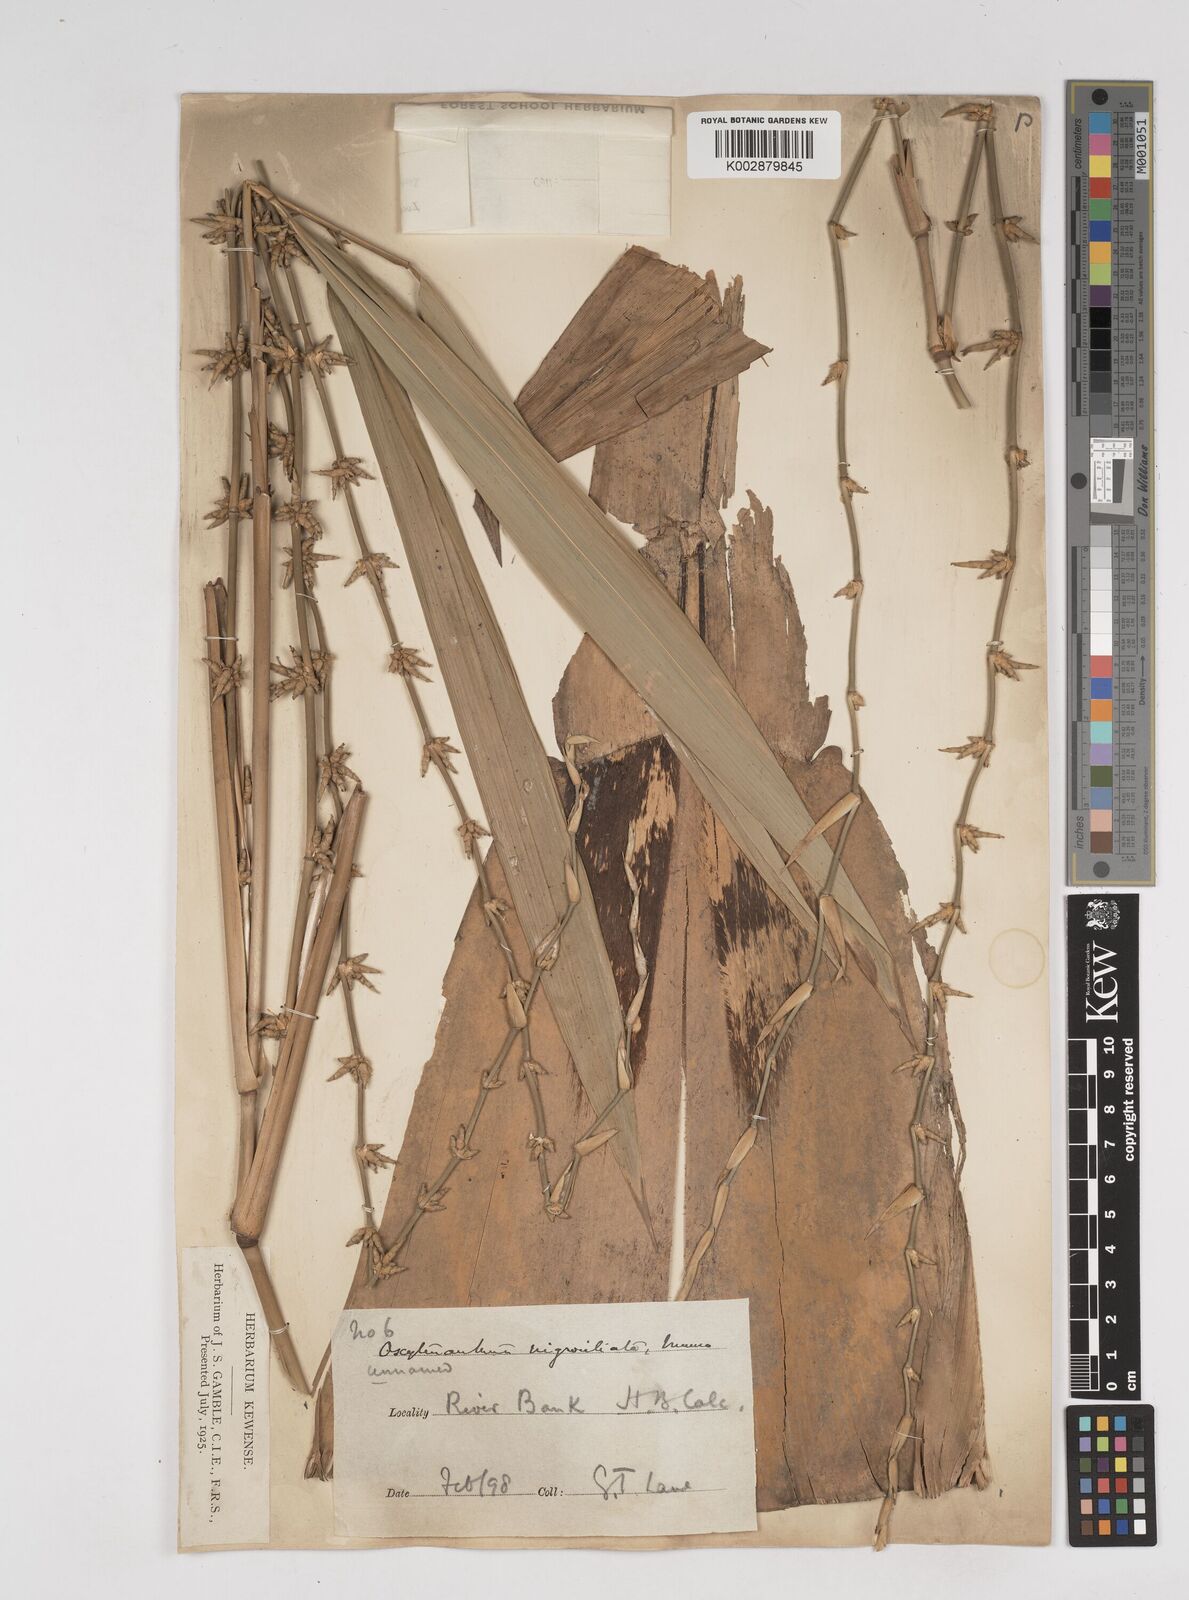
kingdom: Plantae
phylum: Tracheophyta
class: Liliopsida
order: Poales
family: Poaceae
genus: Gigantochloa
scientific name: Gigantochloa nigrociliata
